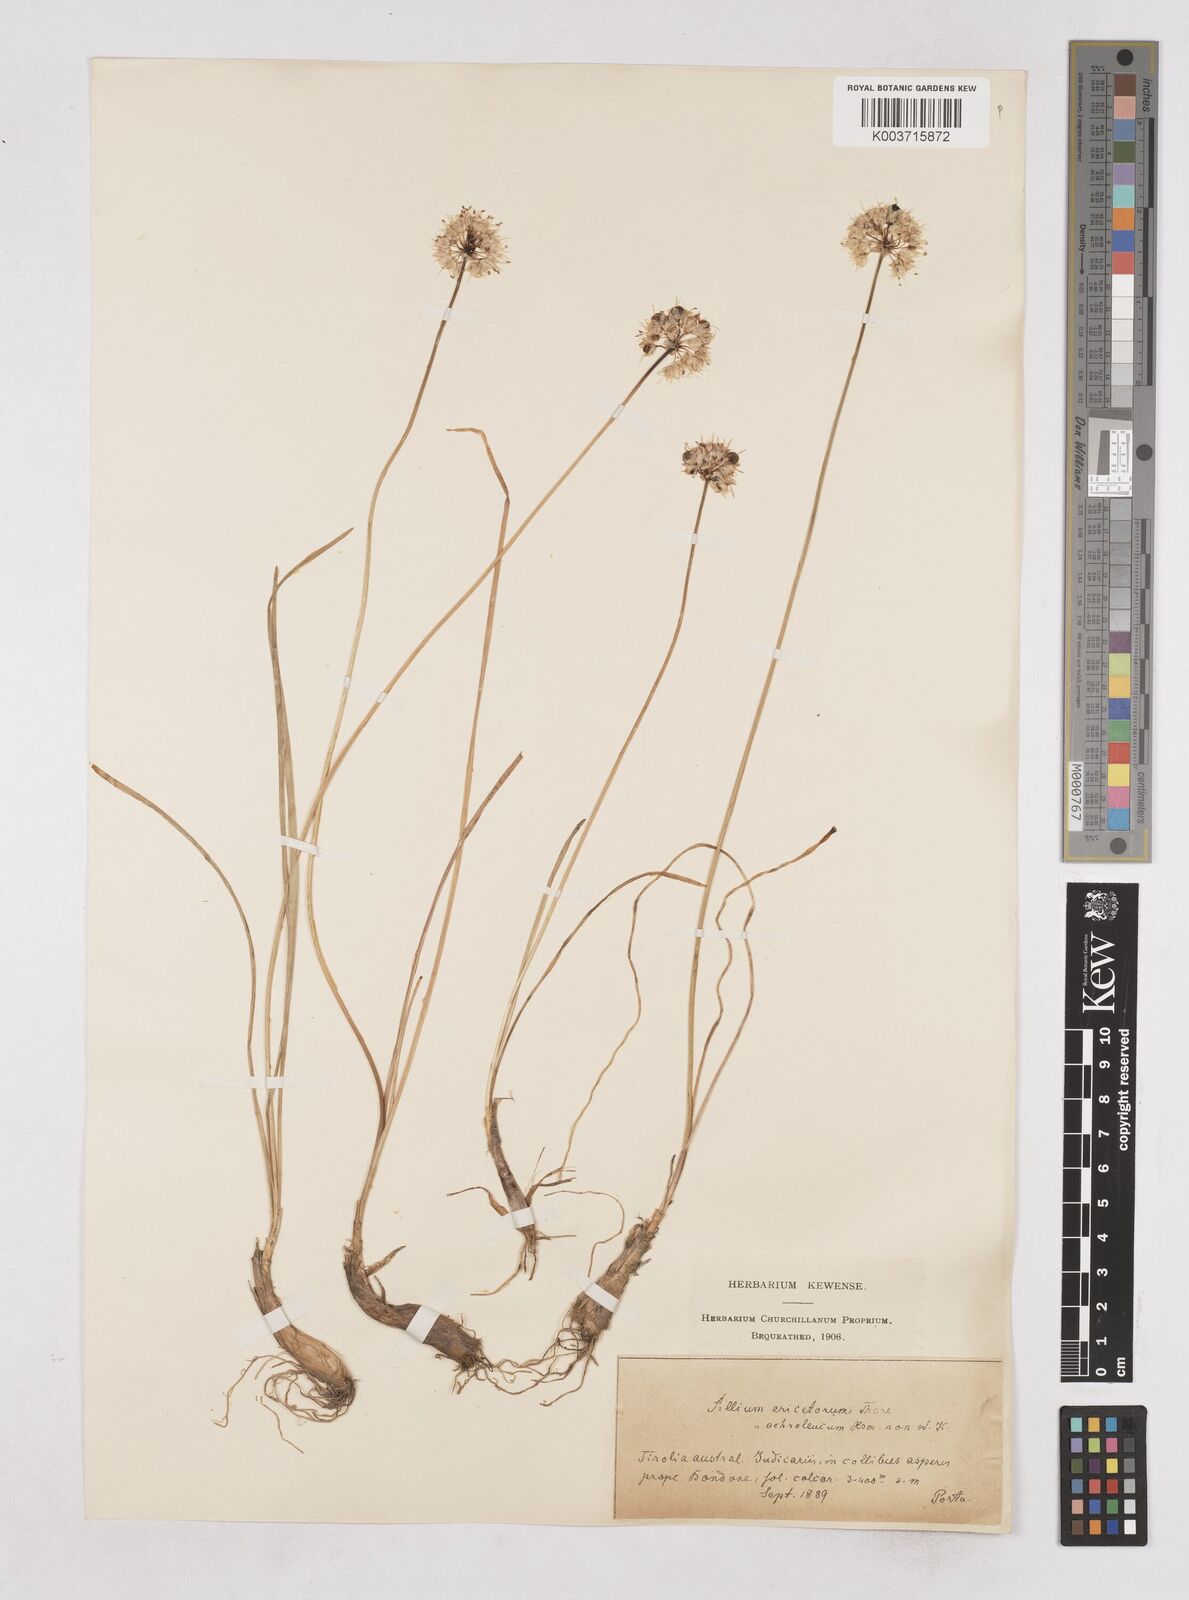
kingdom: Plantae
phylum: Tracheophyta
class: Liliopsida
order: Asparagales
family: Amaryllidaceae
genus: Allium
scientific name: Allium ericetorum
